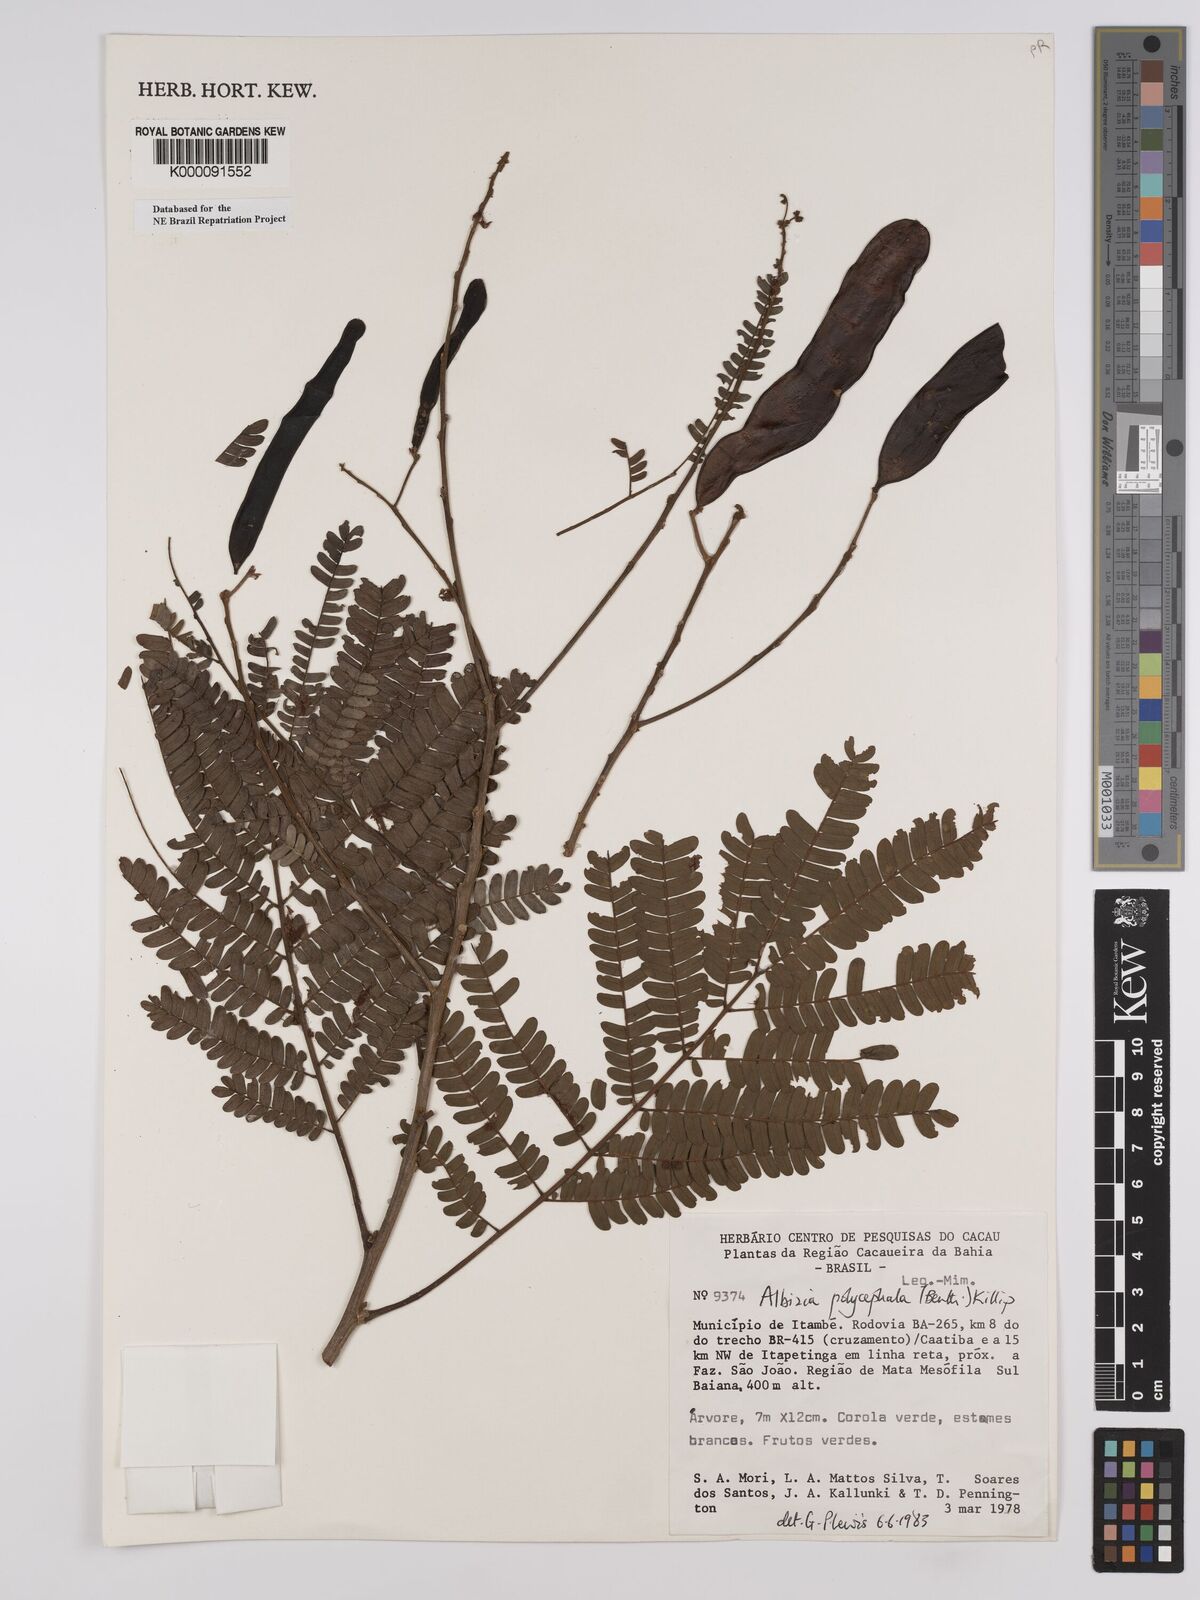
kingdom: Plantae
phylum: Tracheophyta
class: Magnoliopsida
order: Fabales
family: Fabaceae
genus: Albizia
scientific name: Albizia polycephala
